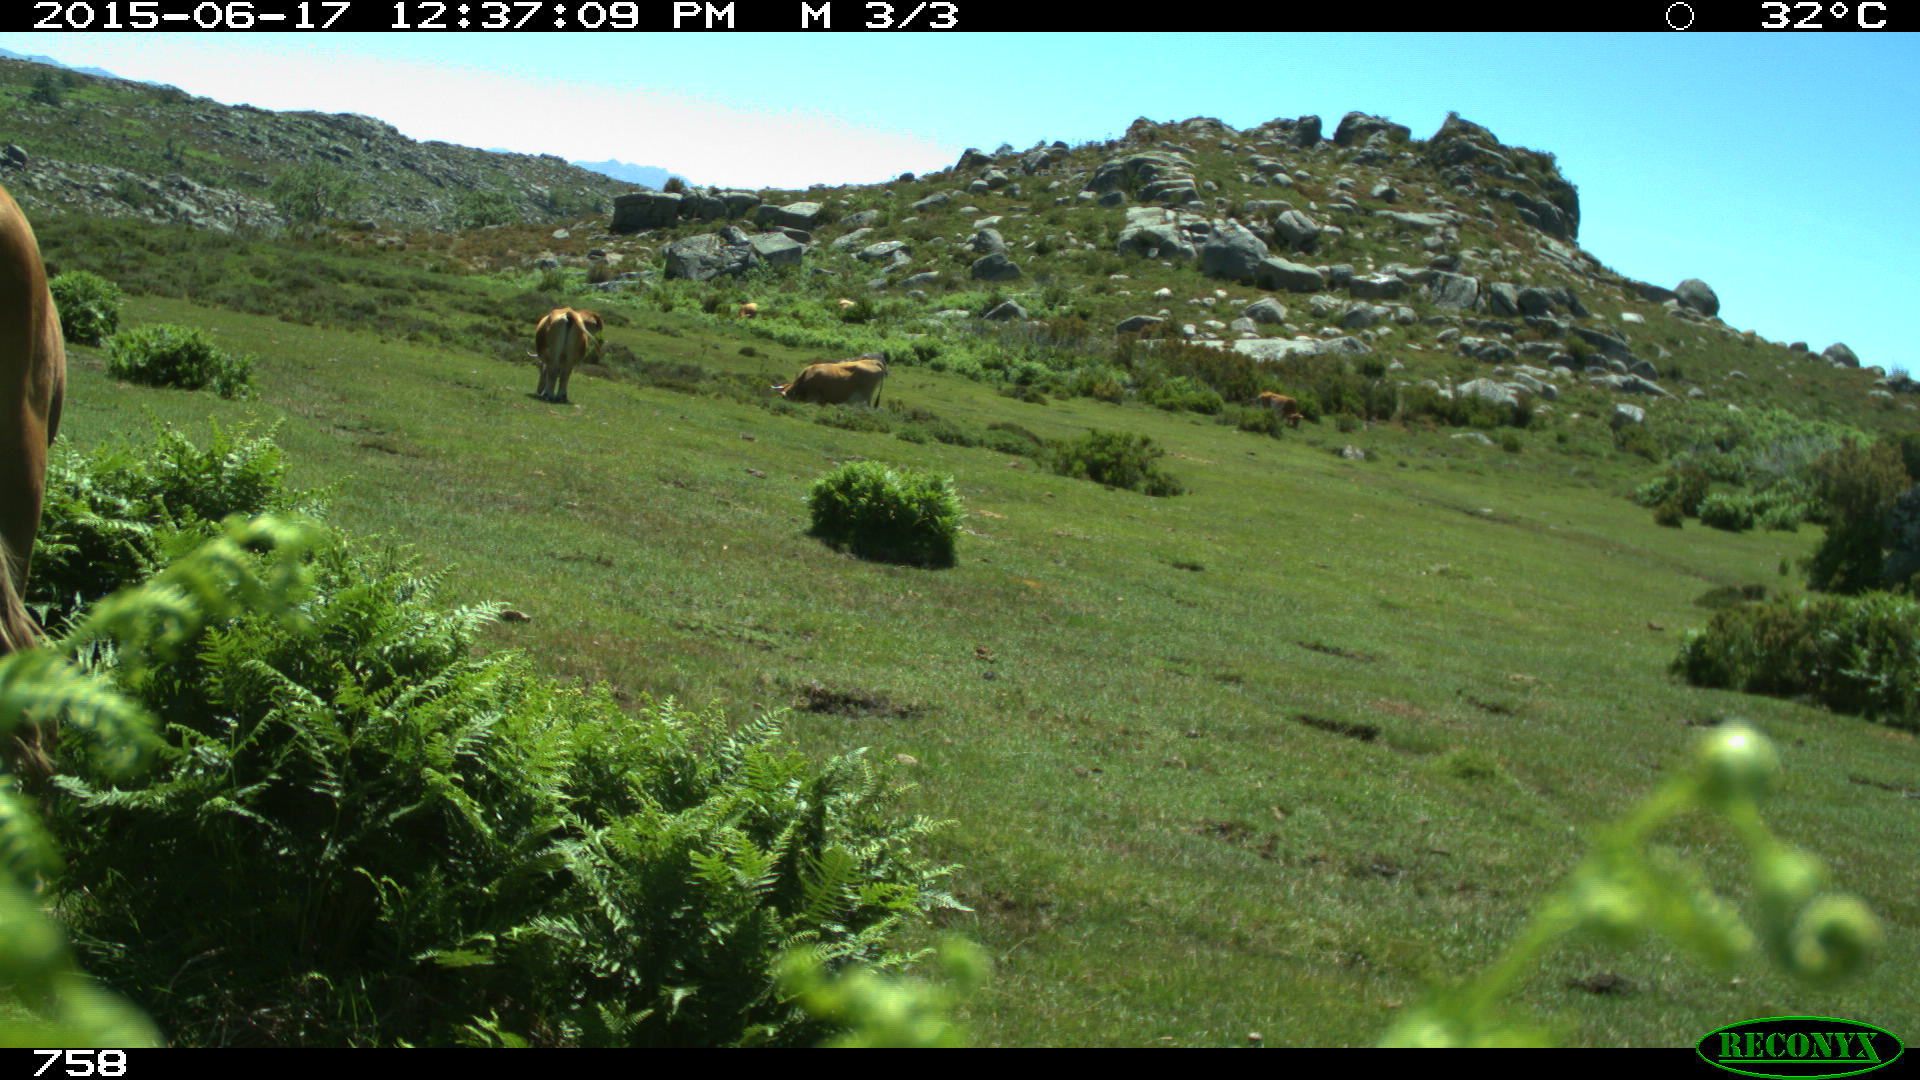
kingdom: Animalia
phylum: Chordata
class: Mammalia
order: Artiodactyla
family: Bovidae
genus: Bos
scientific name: Bos taurus
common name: Domesticated cattle
